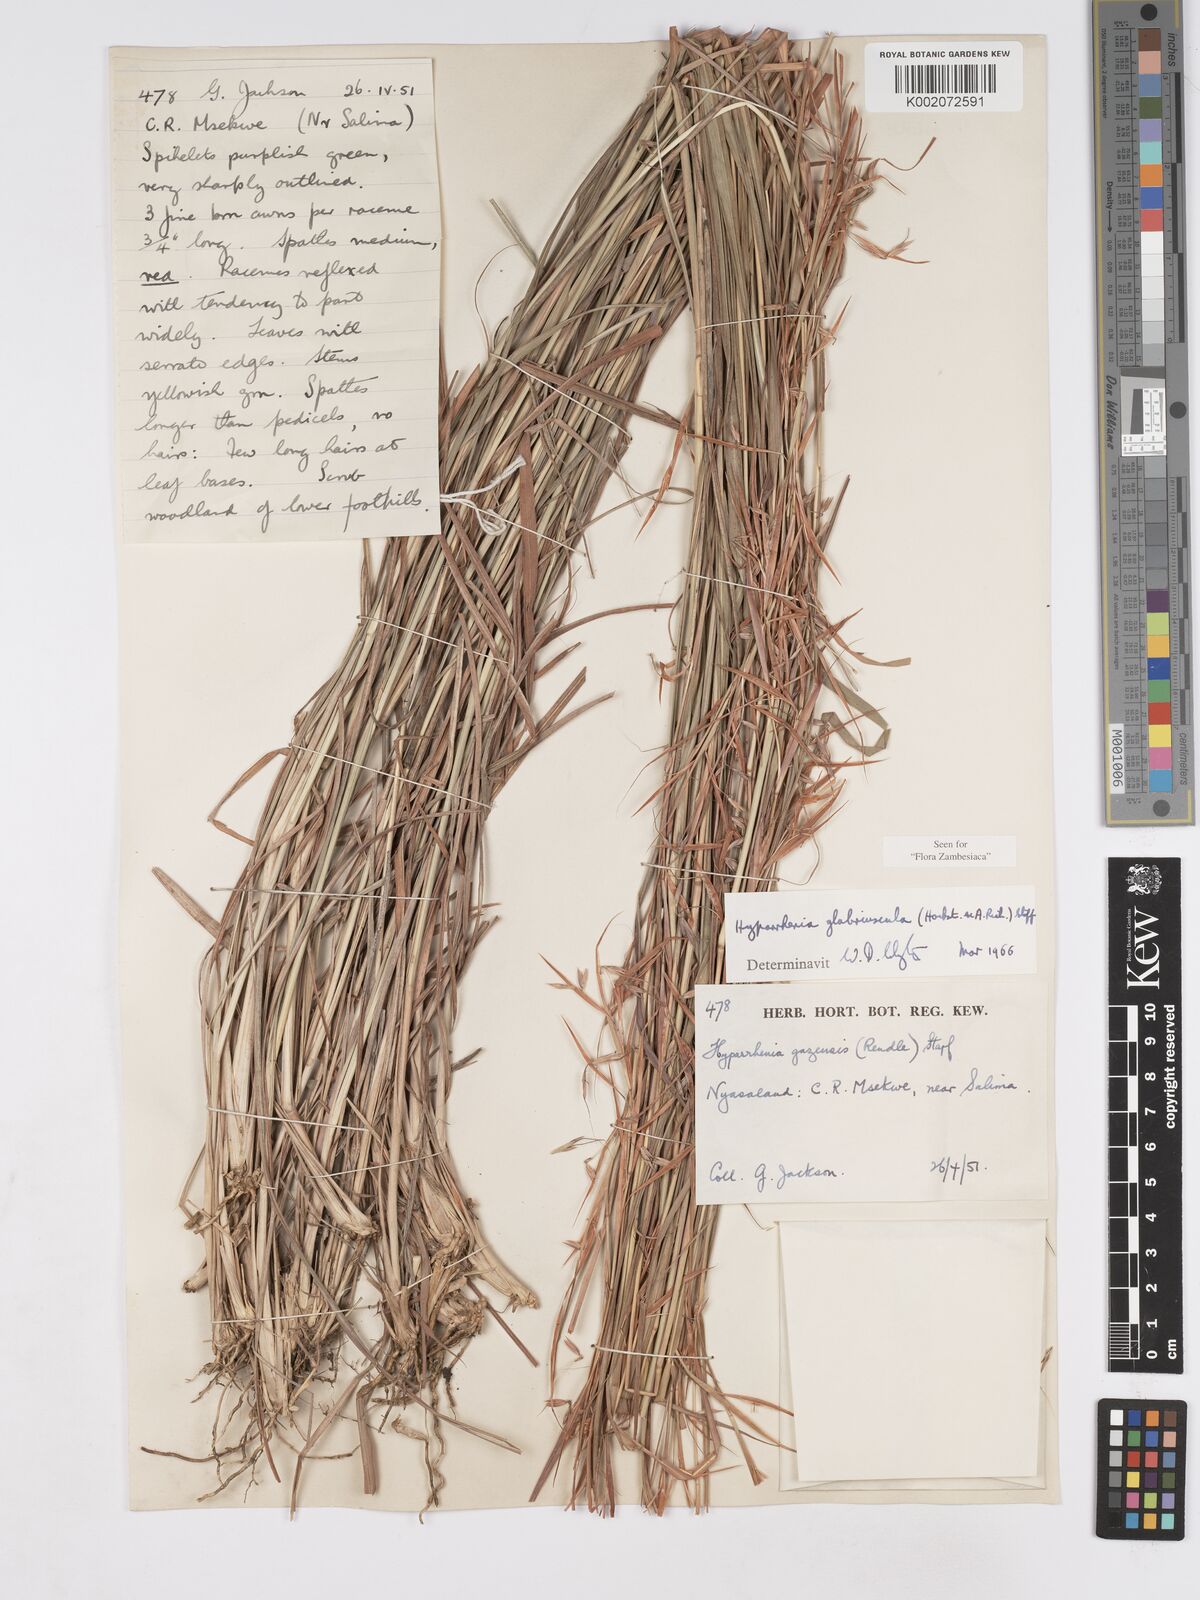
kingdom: Plantae
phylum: Tracheophyta
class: Liliopsida
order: Poales
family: Poaceae
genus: Hyparrhenia
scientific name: Hyparrhenia glabriuscula
